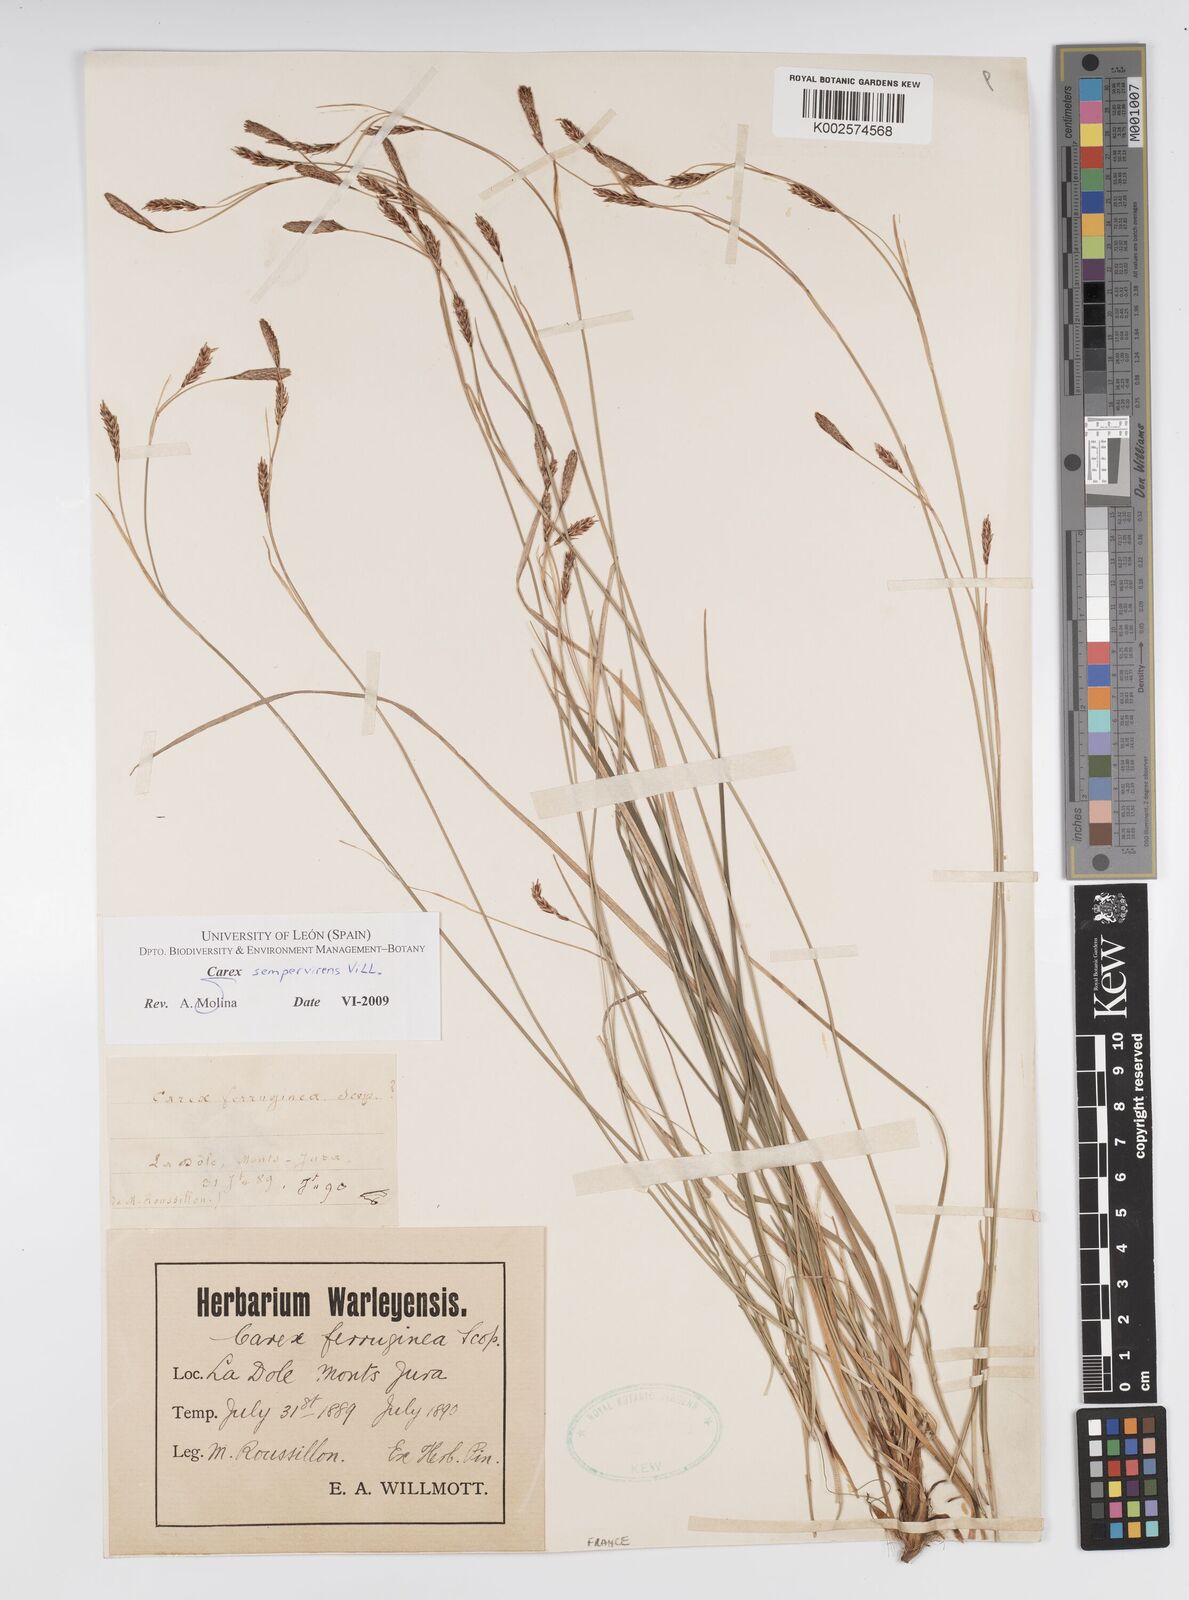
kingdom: Plantae
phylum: Tracheophyta
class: Liliopsida
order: Poales
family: Cyperaceae
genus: Carex
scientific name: Carex sempervirens
